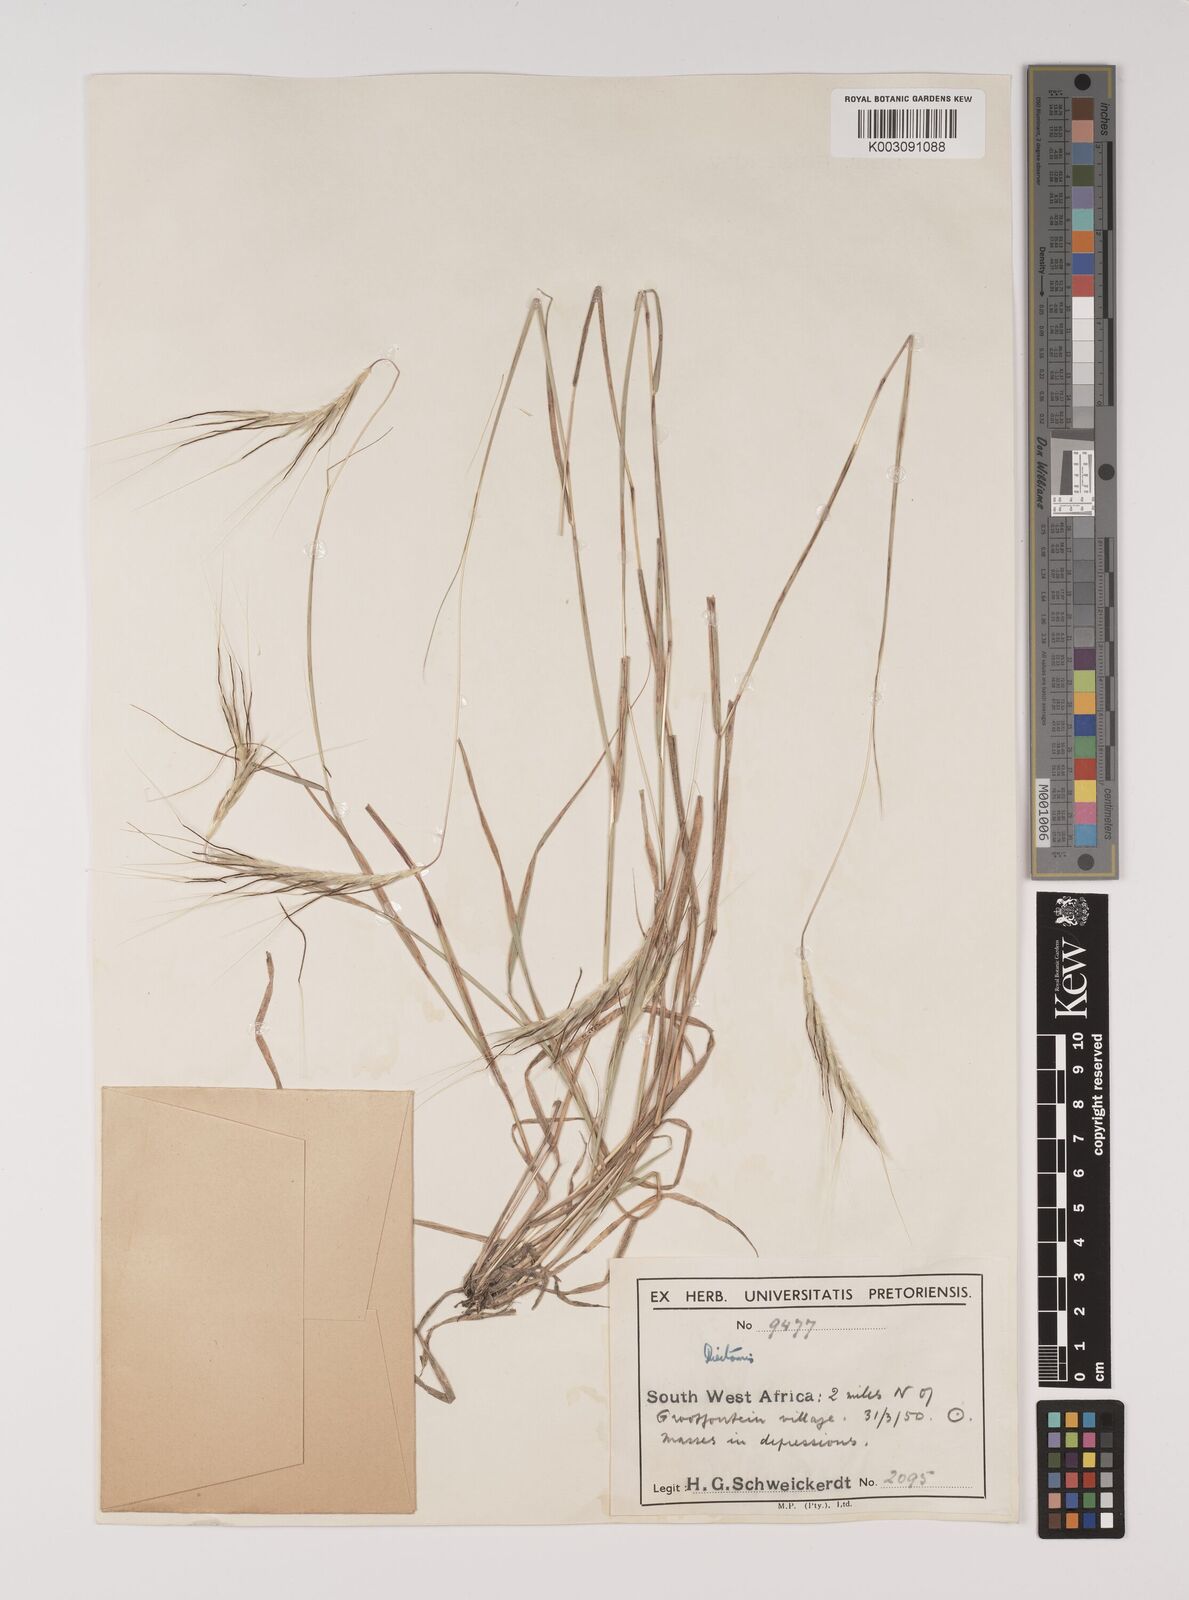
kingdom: Plantae
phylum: Tracheophyta
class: Liliopsida
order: Poales
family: Poaceae
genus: Sehima
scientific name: Sehima ischaemoides
